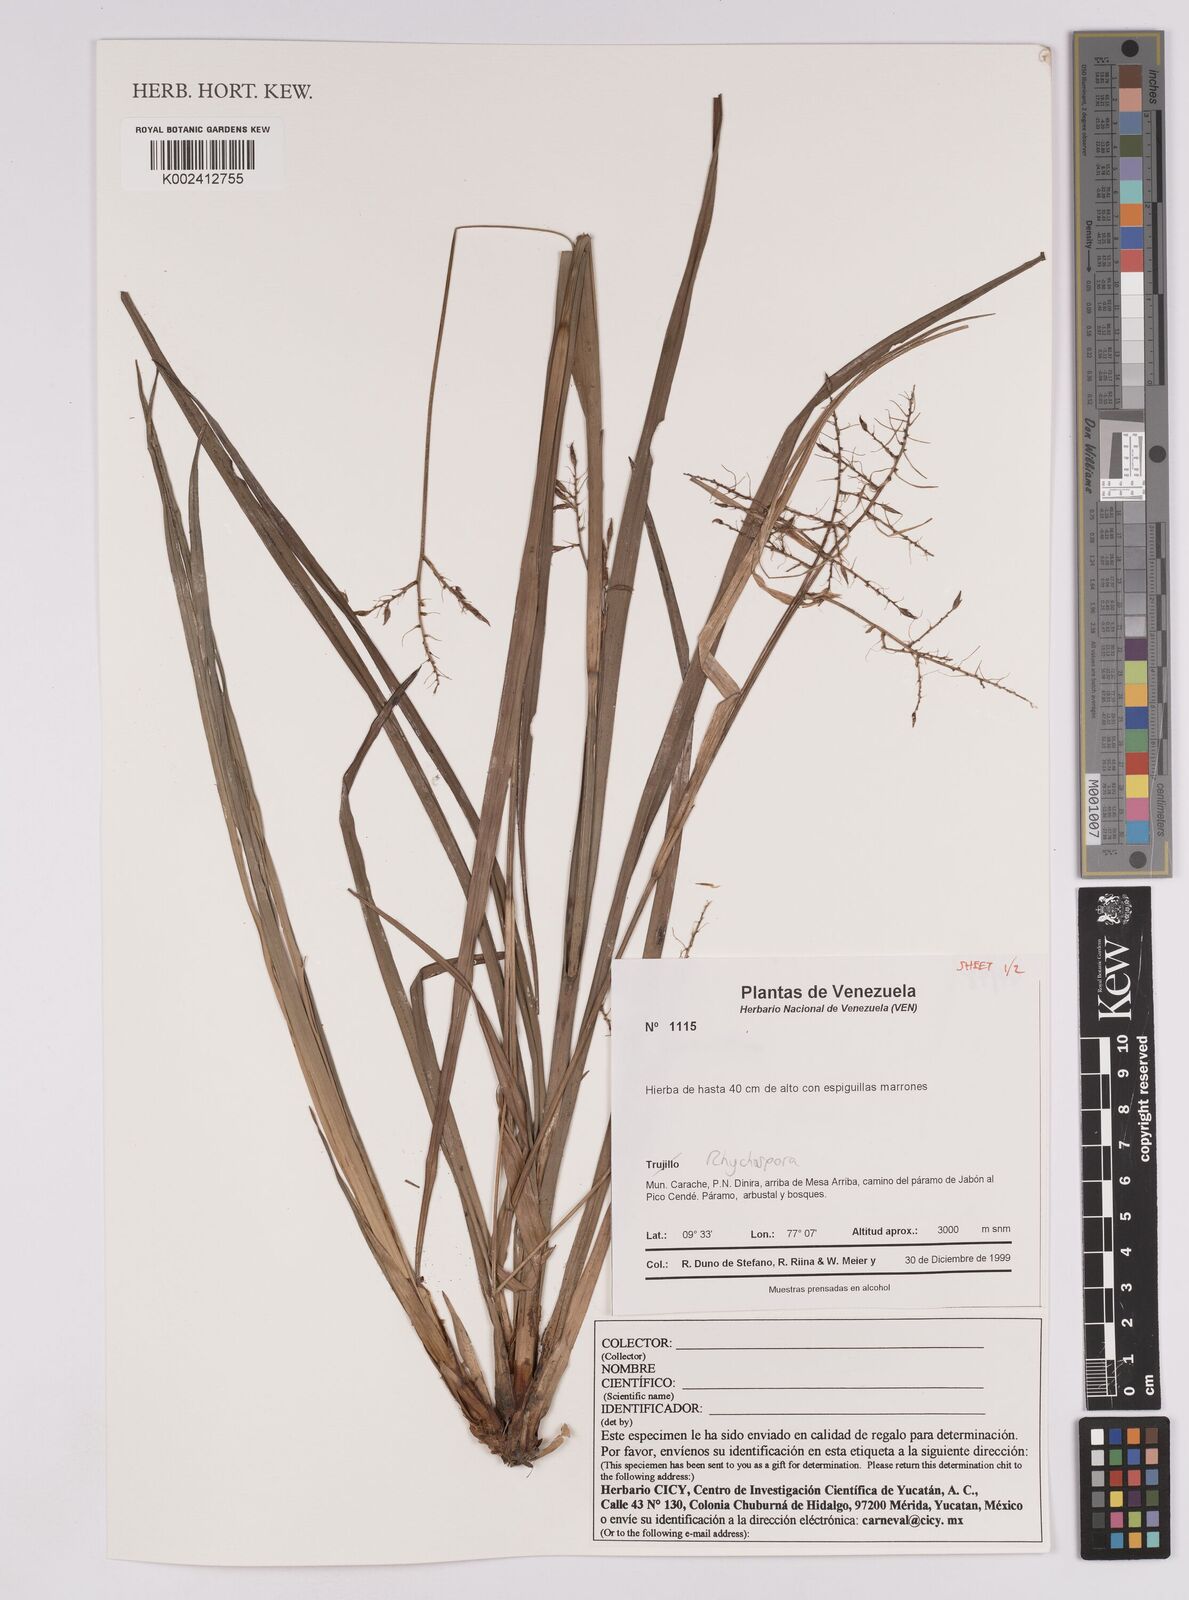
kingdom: Plantae
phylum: Tracheophyta
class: Liliopsida
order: Poales
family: Cyperaceae
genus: Rhynchospora
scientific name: Rhynchospora
